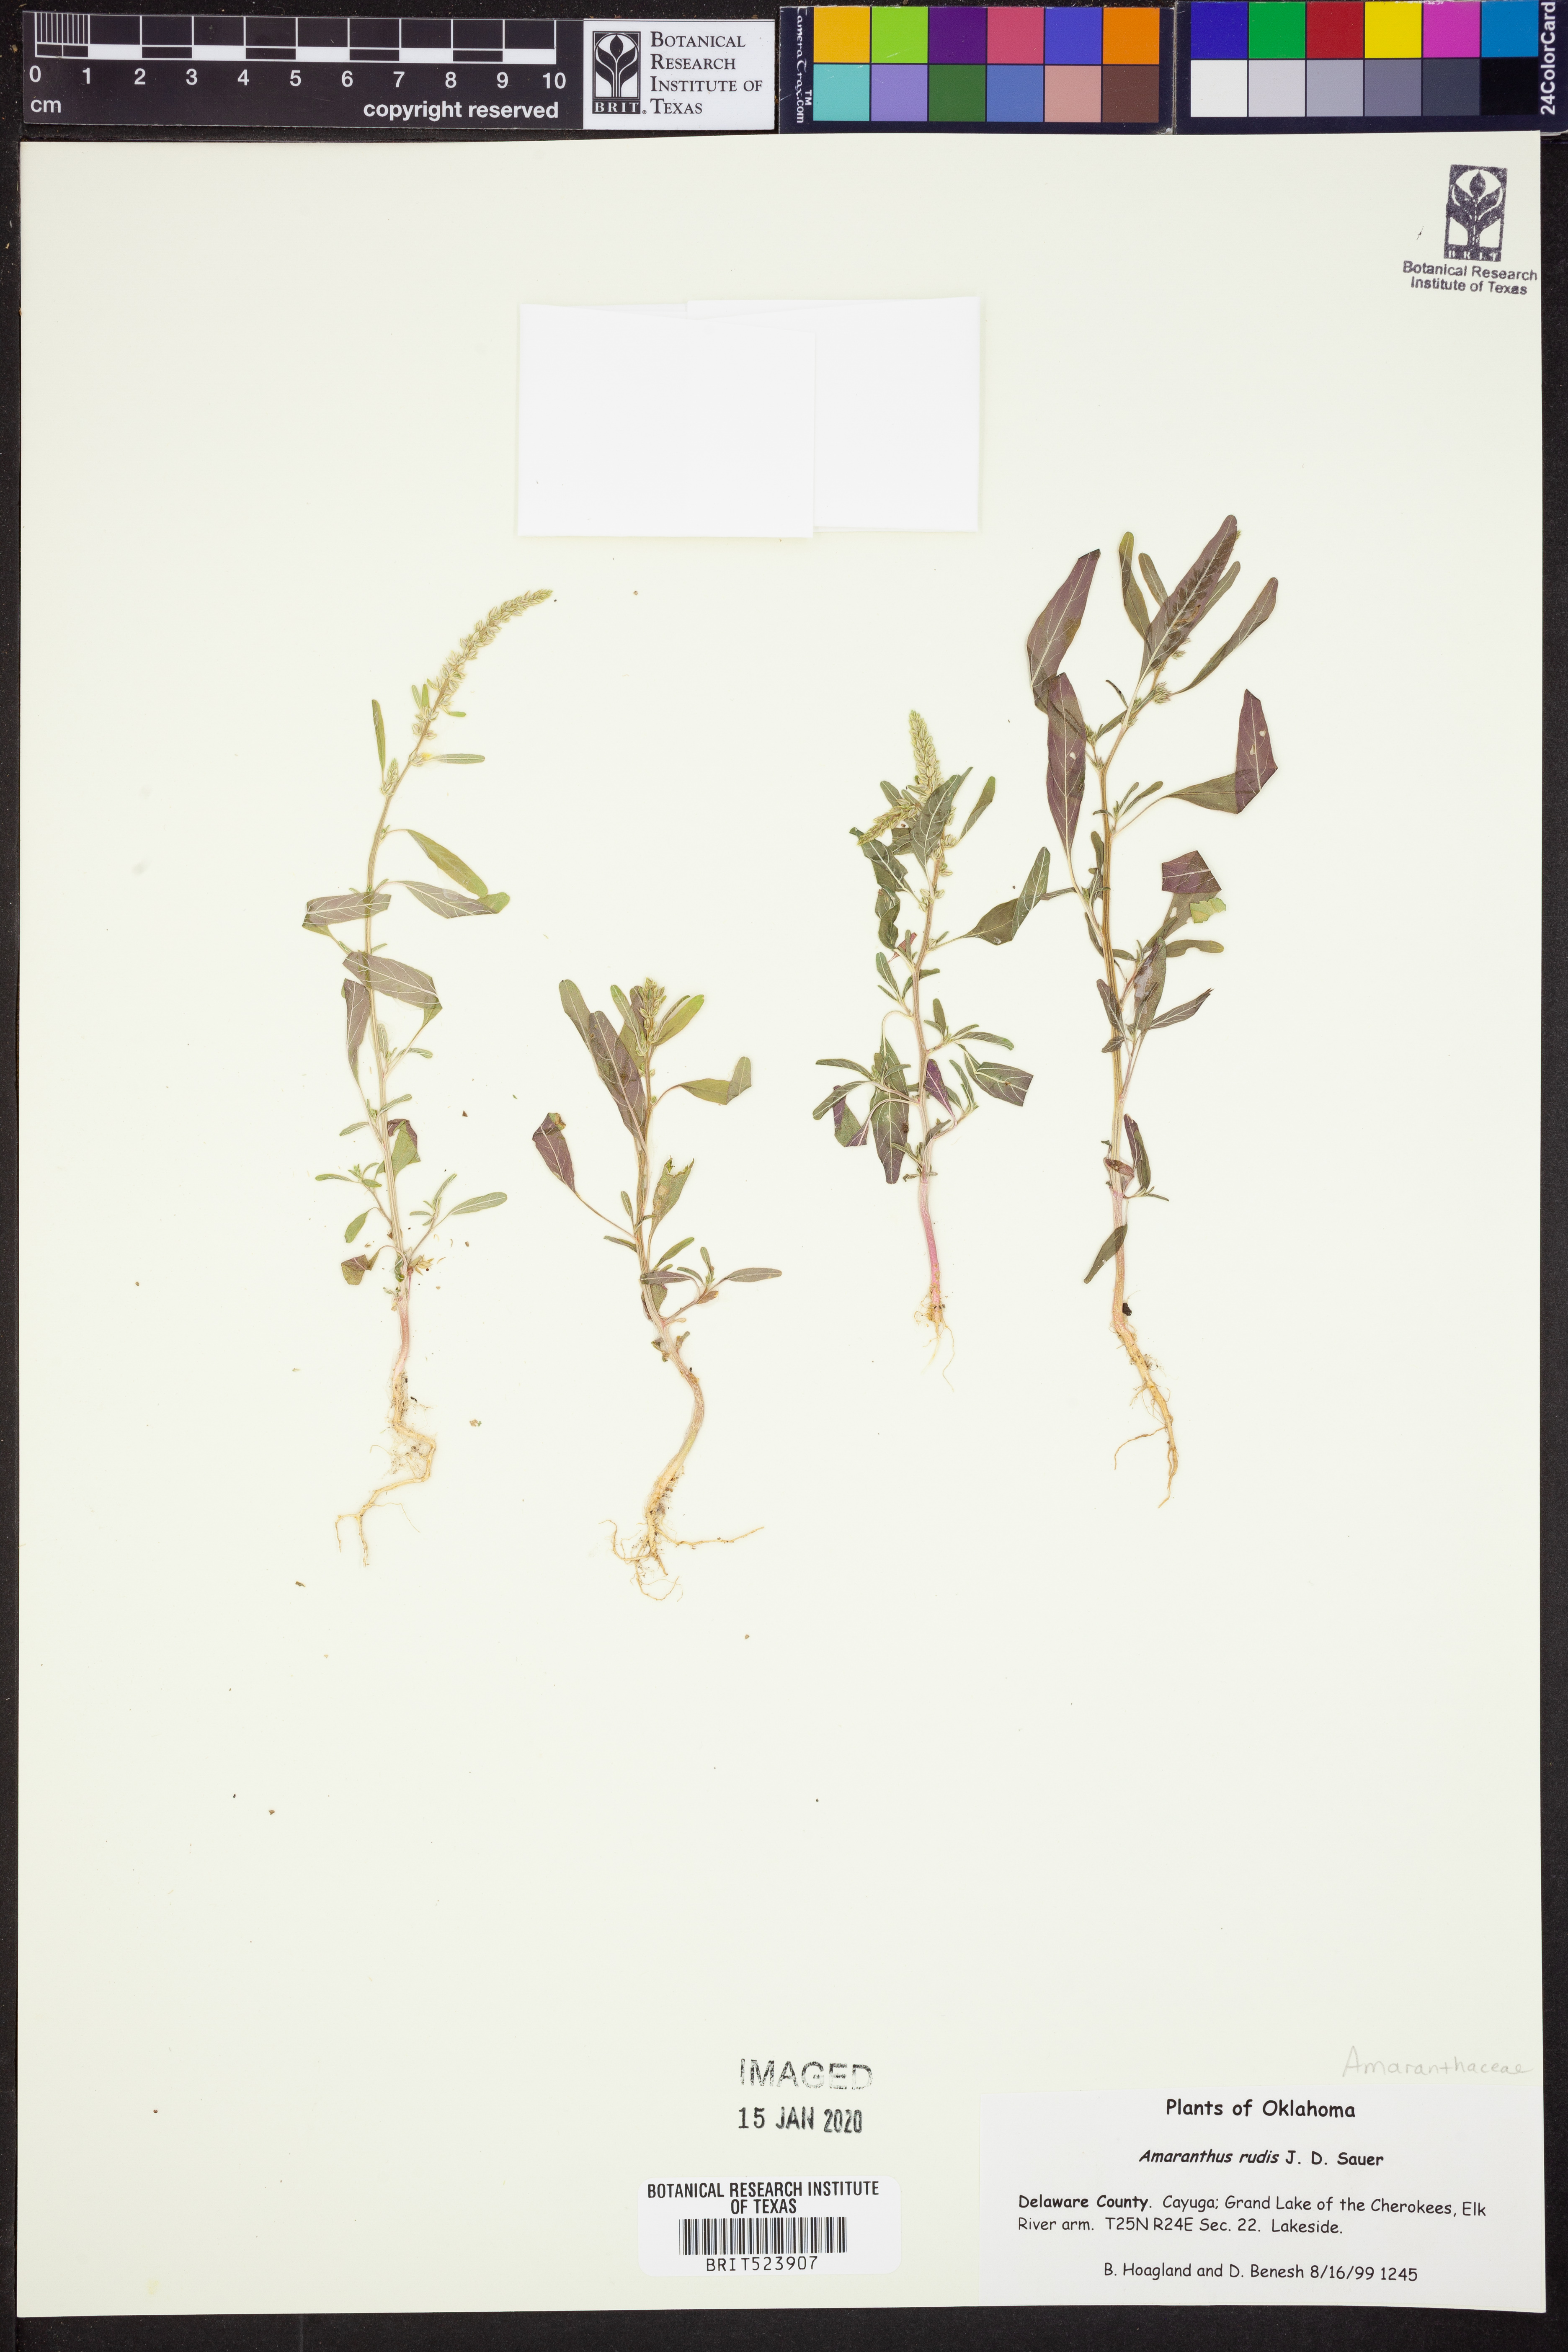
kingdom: Plantae
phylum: Tracheophyta
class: Magnoliopsida
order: Caryophyllales
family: Amaranthaceae
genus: Amaranthus
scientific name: Amaranthus tuberculatus
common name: Rough-fruit amaranth
